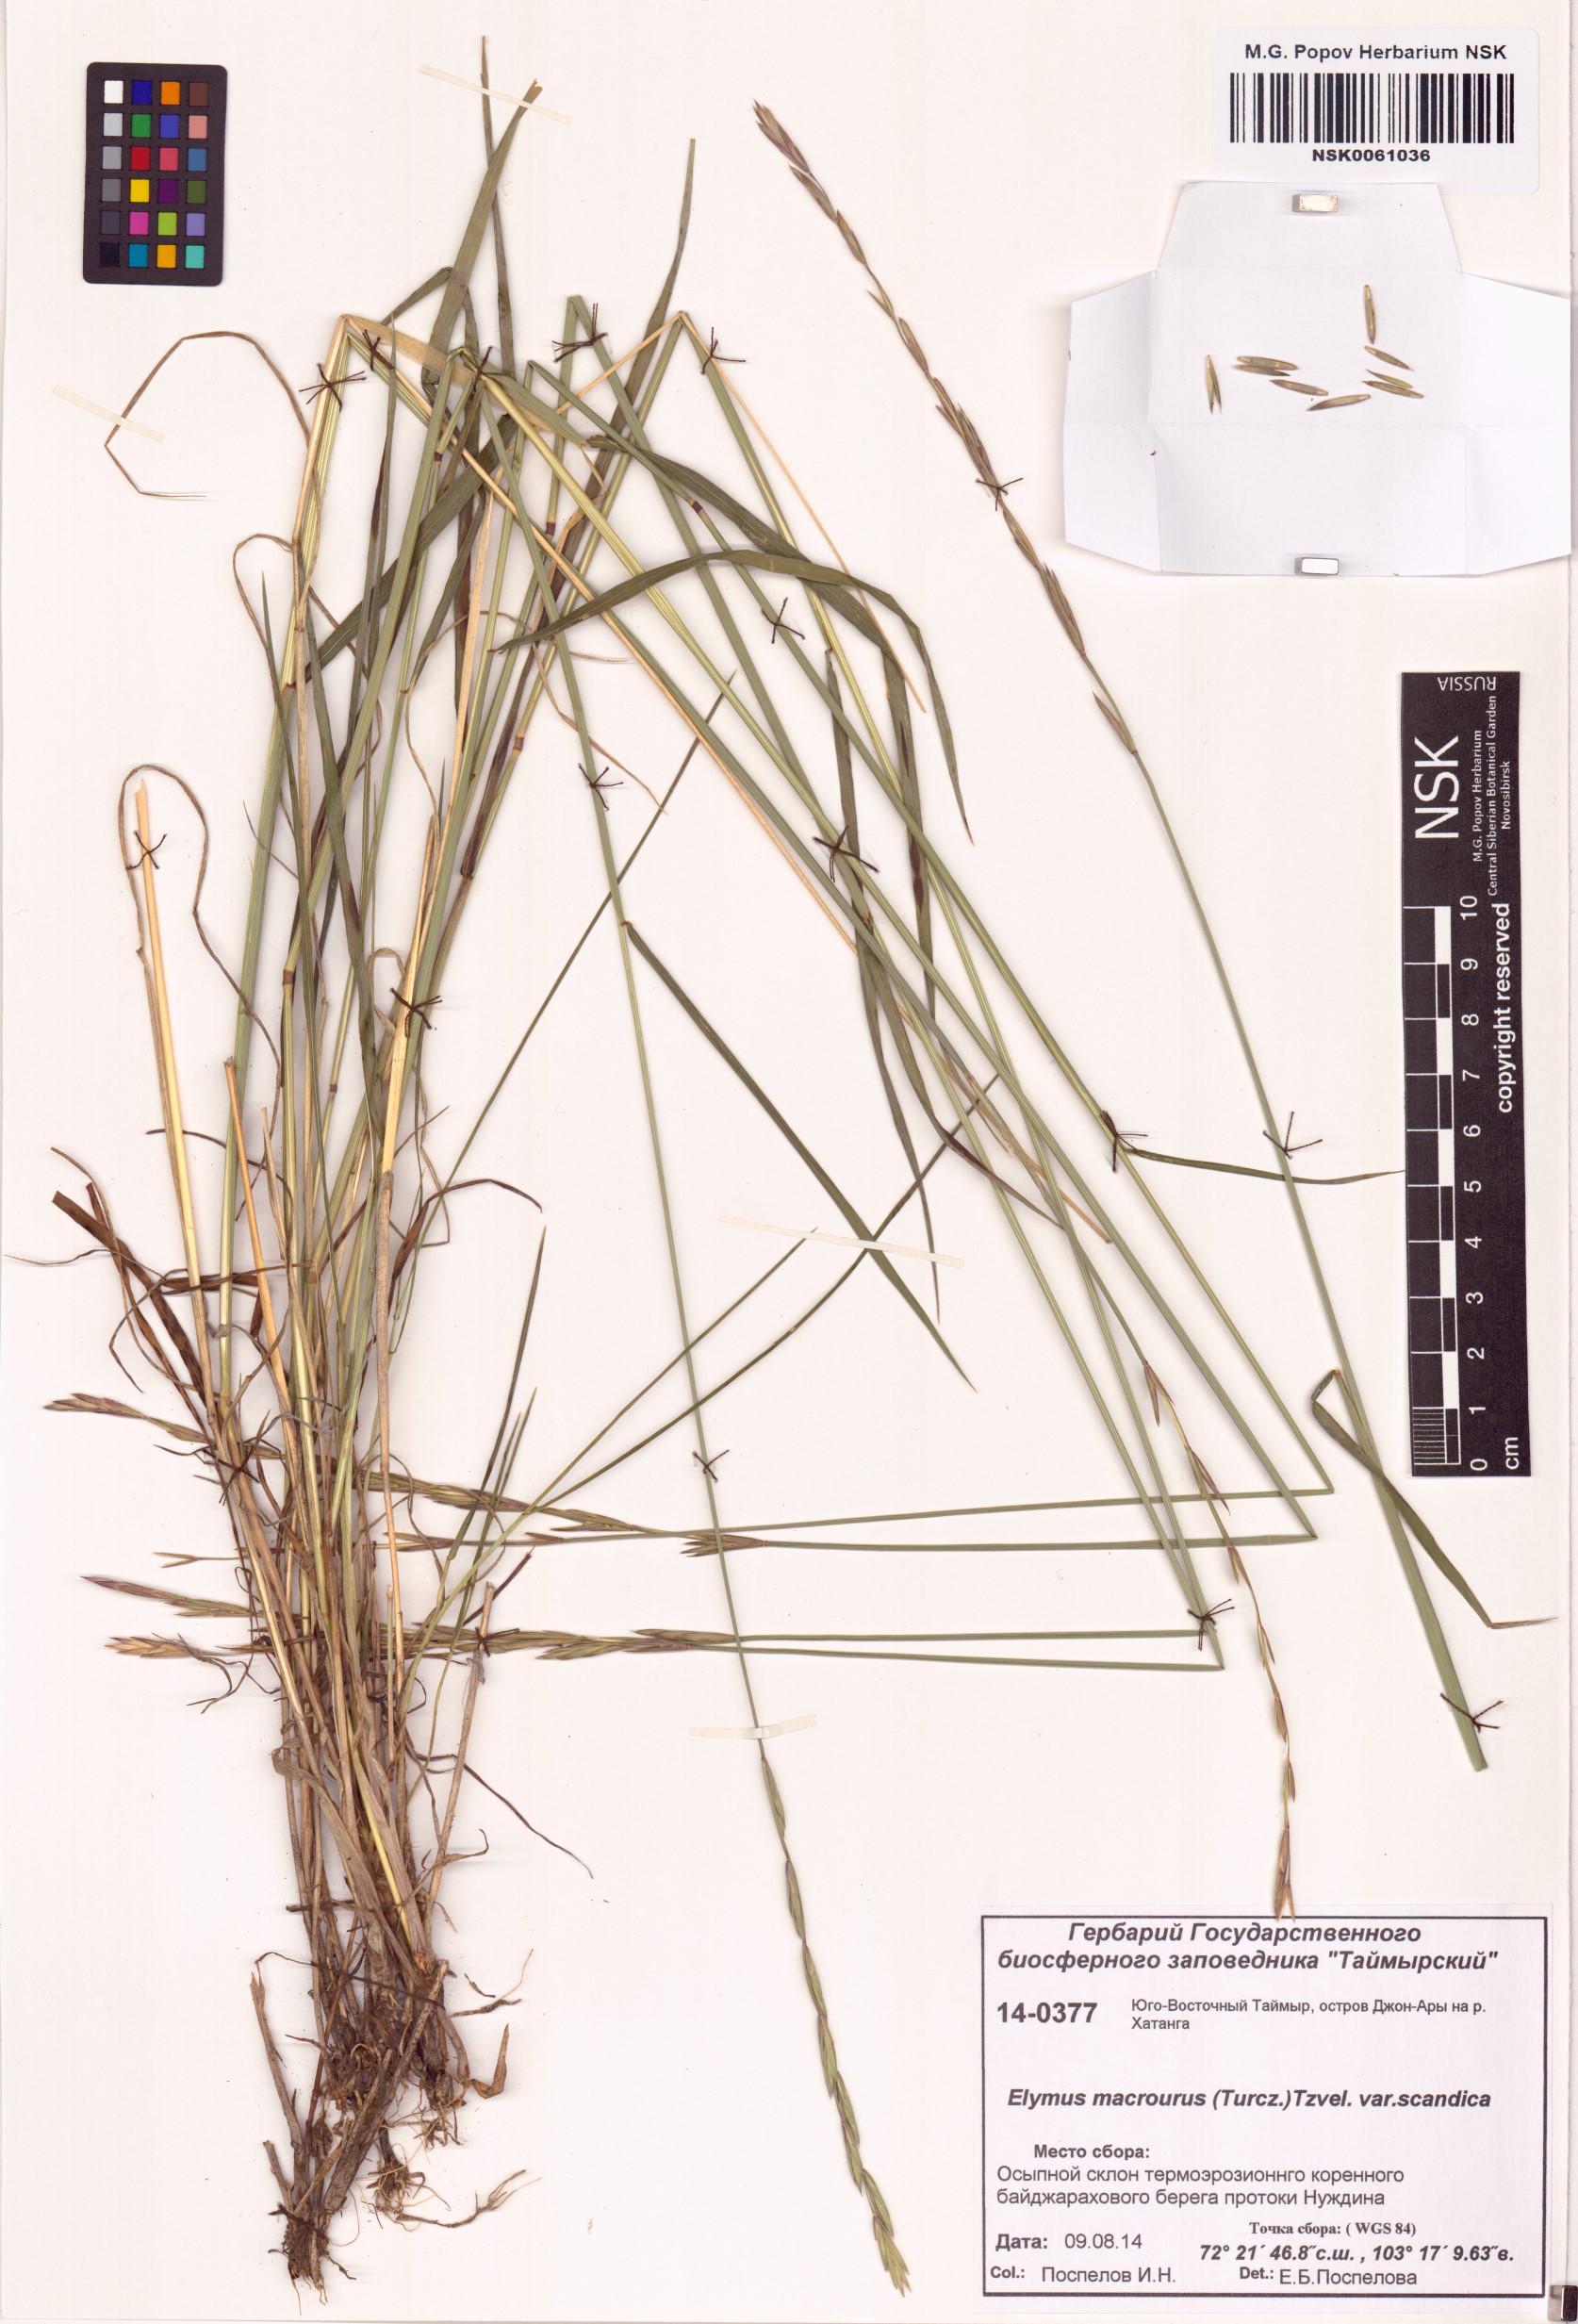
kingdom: Plantae
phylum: Tracheophyta
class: Liliopsida
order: Poales
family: Poaceae
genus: Elymus
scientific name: Elymus macrourus
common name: Northern wheatgrass
